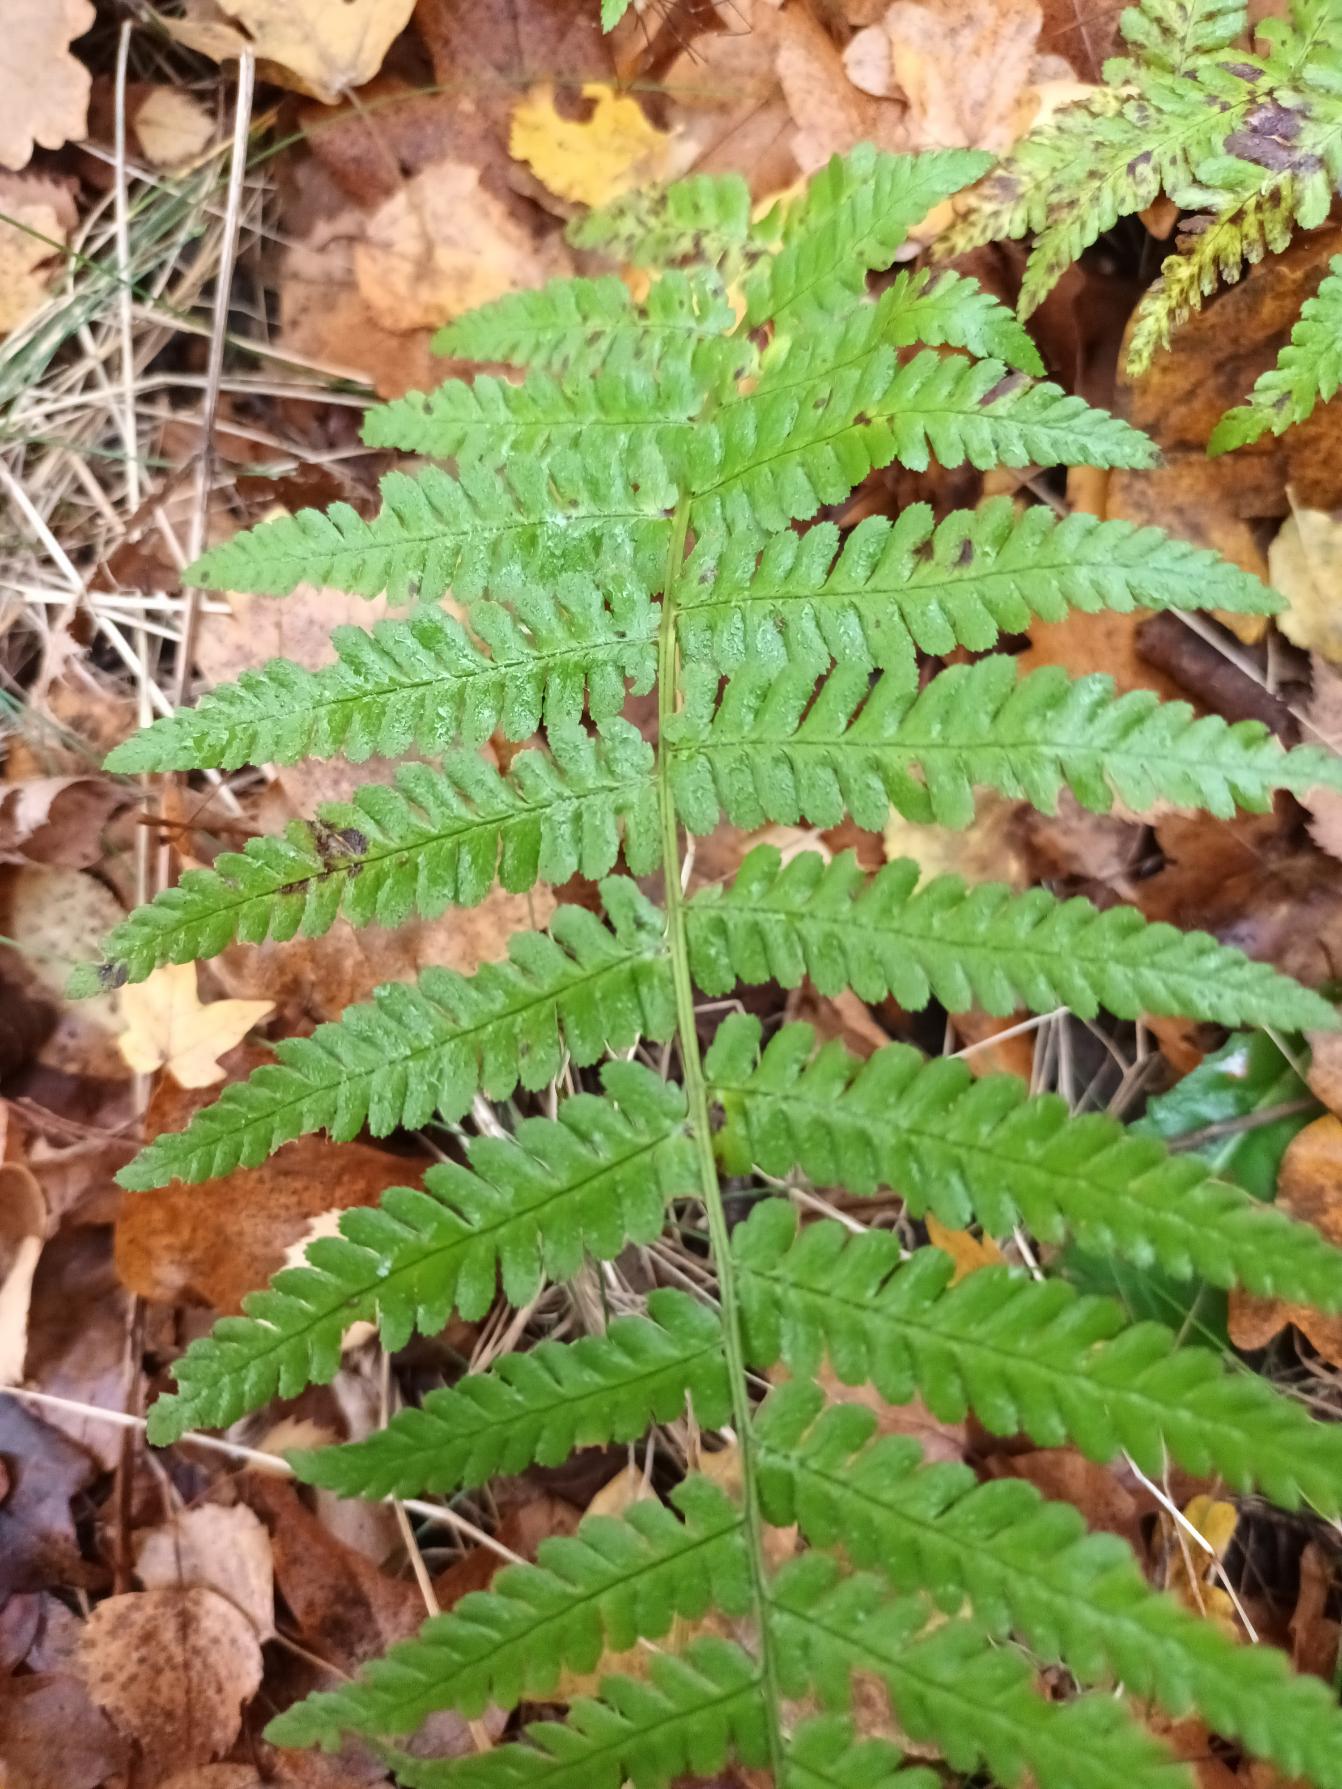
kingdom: Plantae
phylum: Tracheophyta
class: Polypodiopsida
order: Polypodiales
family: Dryopteridaceae
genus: Dryopteris
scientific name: Dryopteris filix-mas
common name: Almindelig mangeløv
